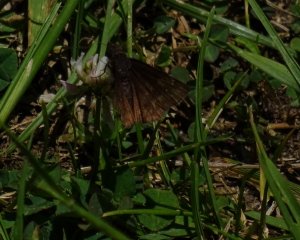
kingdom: Animalia
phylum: Arthropoda
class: Insecta
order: Lepidoptera
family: Hesperiidae
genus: Gesta
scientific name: Gesta
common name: Wild Indigo Duskywing
